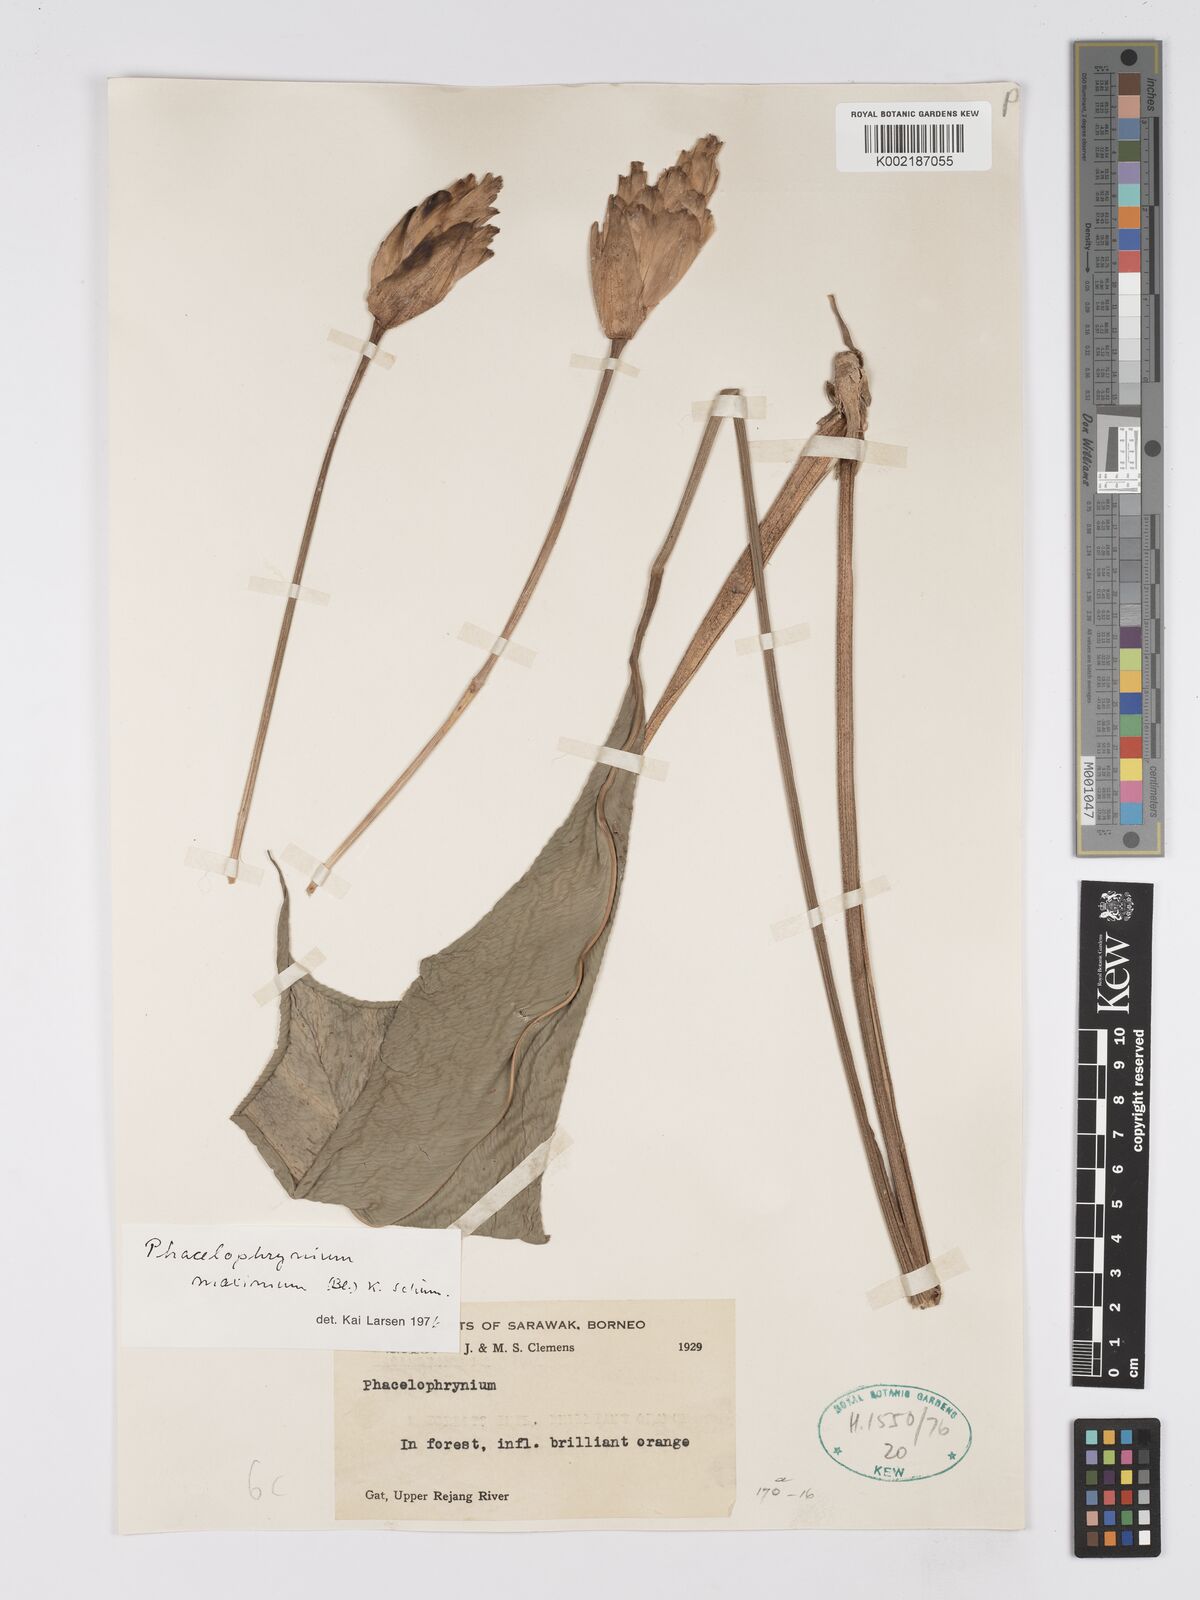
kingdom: Plantae
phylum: Tracheophyta
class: Liliopsida
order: Zingiberales
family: Marantaceae
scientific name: Marantaceae
